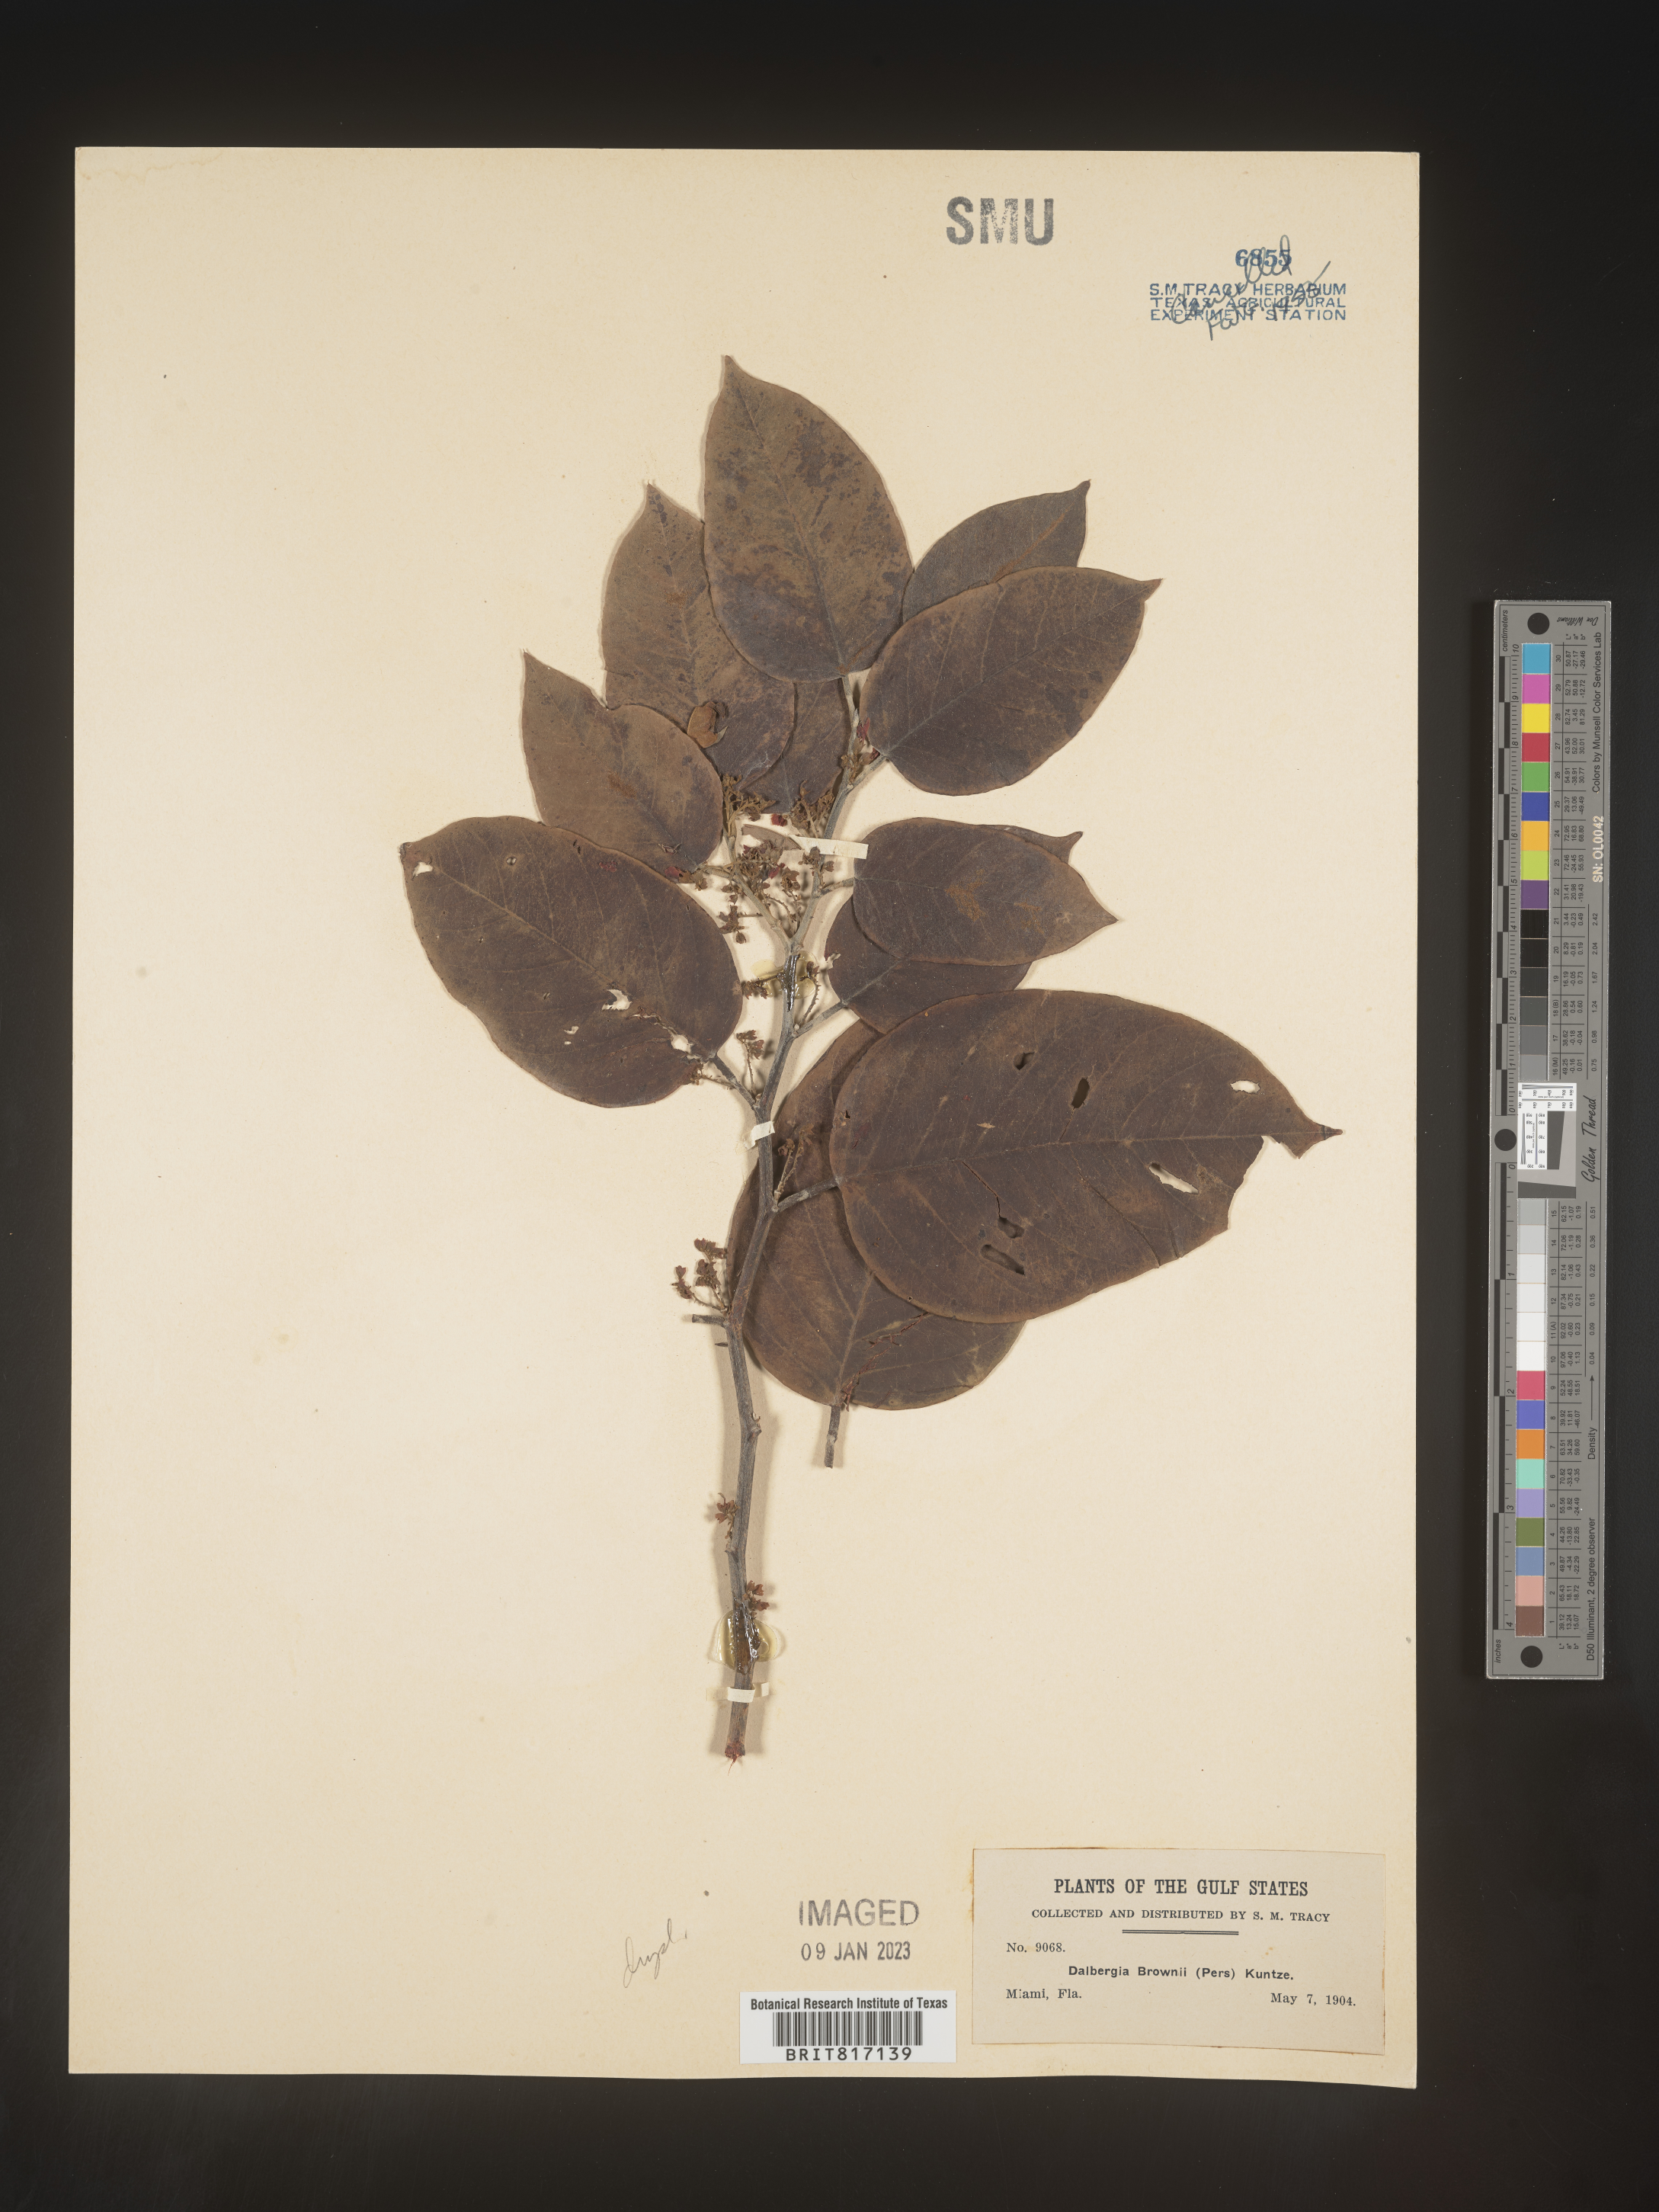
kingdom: Plantae
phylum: Tracheophyta
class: Magnoliopsida
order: Fabales
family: Fabaceae
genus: Dalbergia
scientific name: Dalbergia
